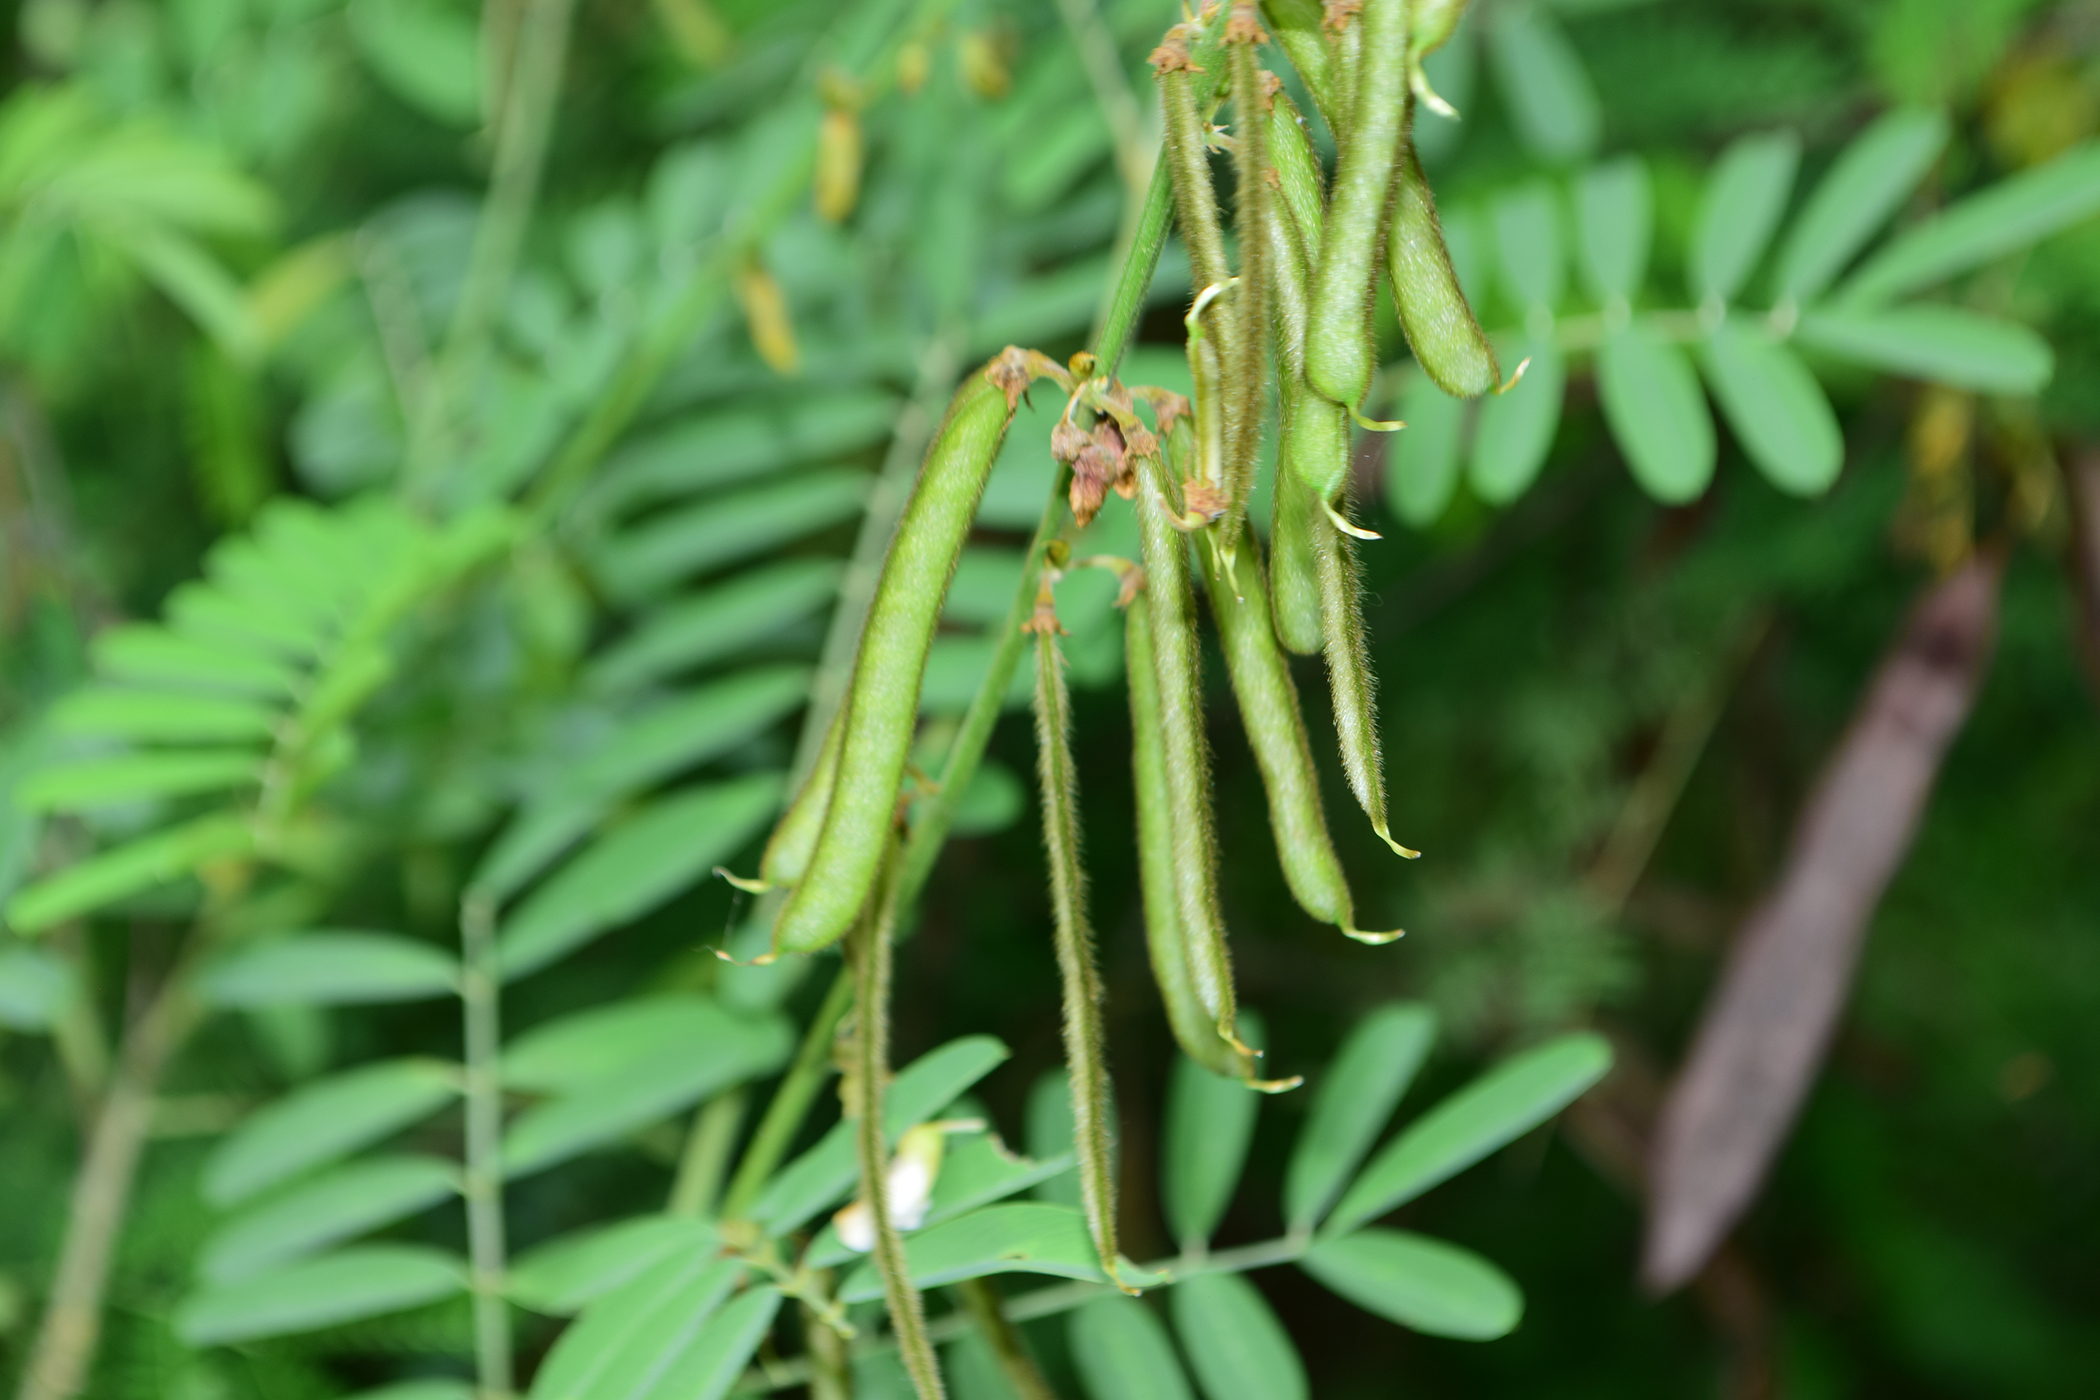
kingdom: Plantae
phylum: Tracheophyta
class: Magnoliopsida
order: Fabales
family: Fabaceae
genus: Tephrosia
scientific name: Tephrosia noctiflora
